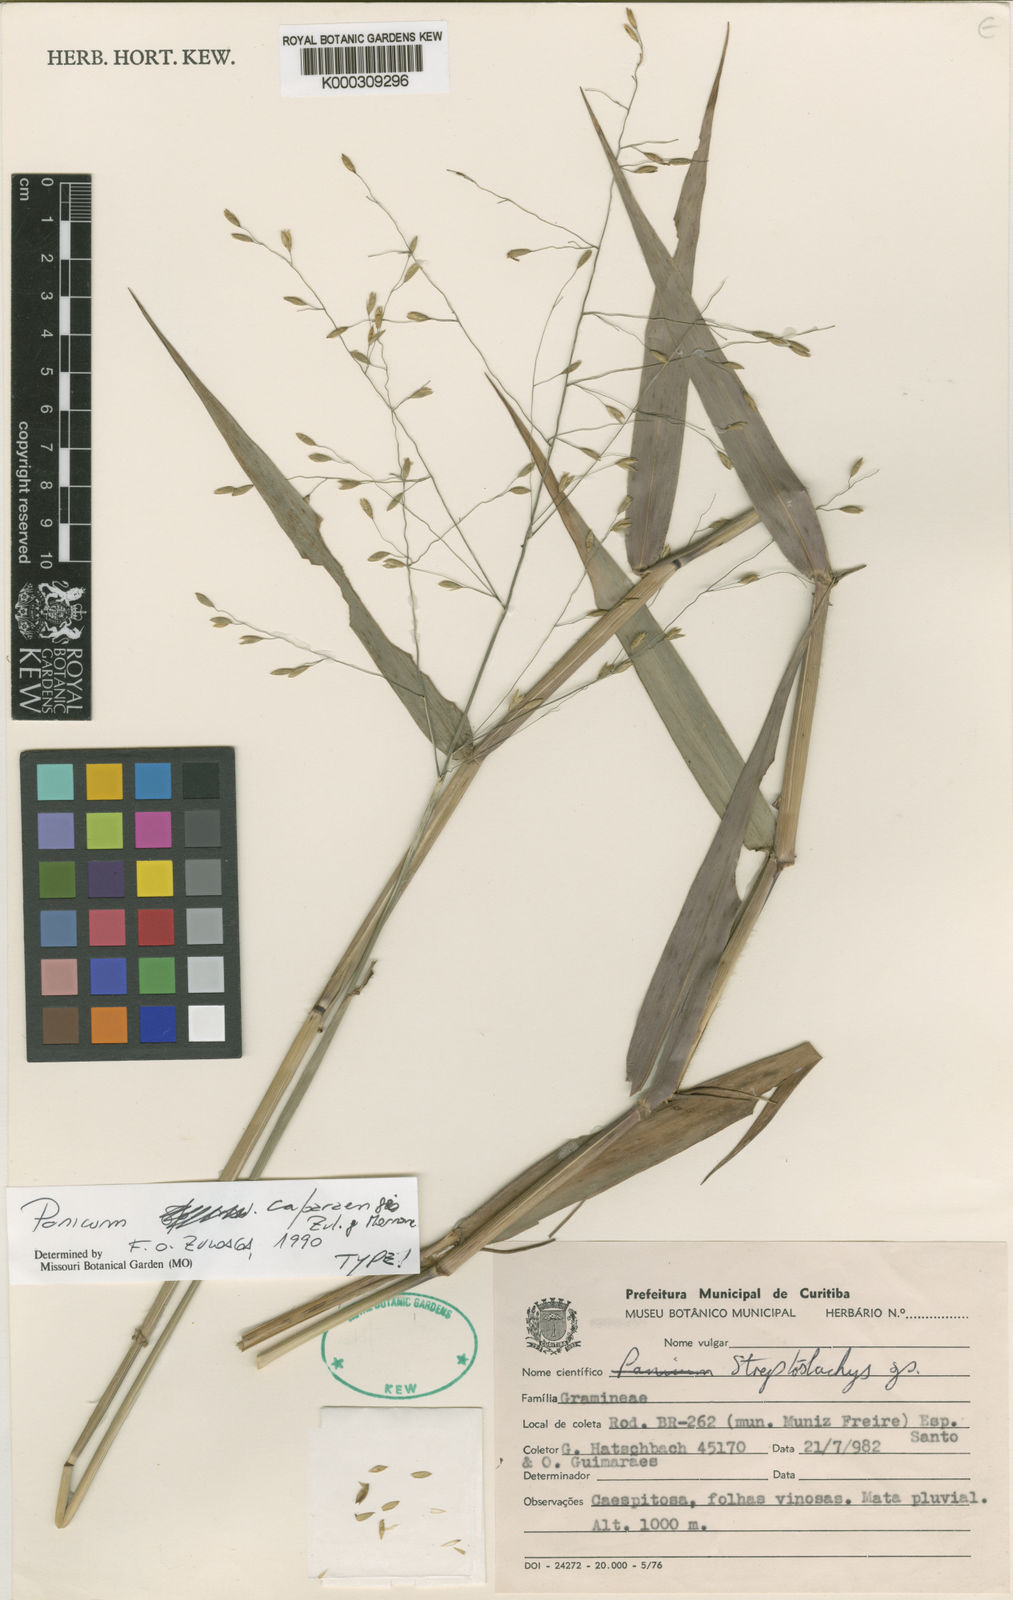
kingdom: Plantae
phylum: Tracheophyta
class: Liliopsida
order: Poales
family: Poaceae
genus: Panicum
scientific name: Panicum
